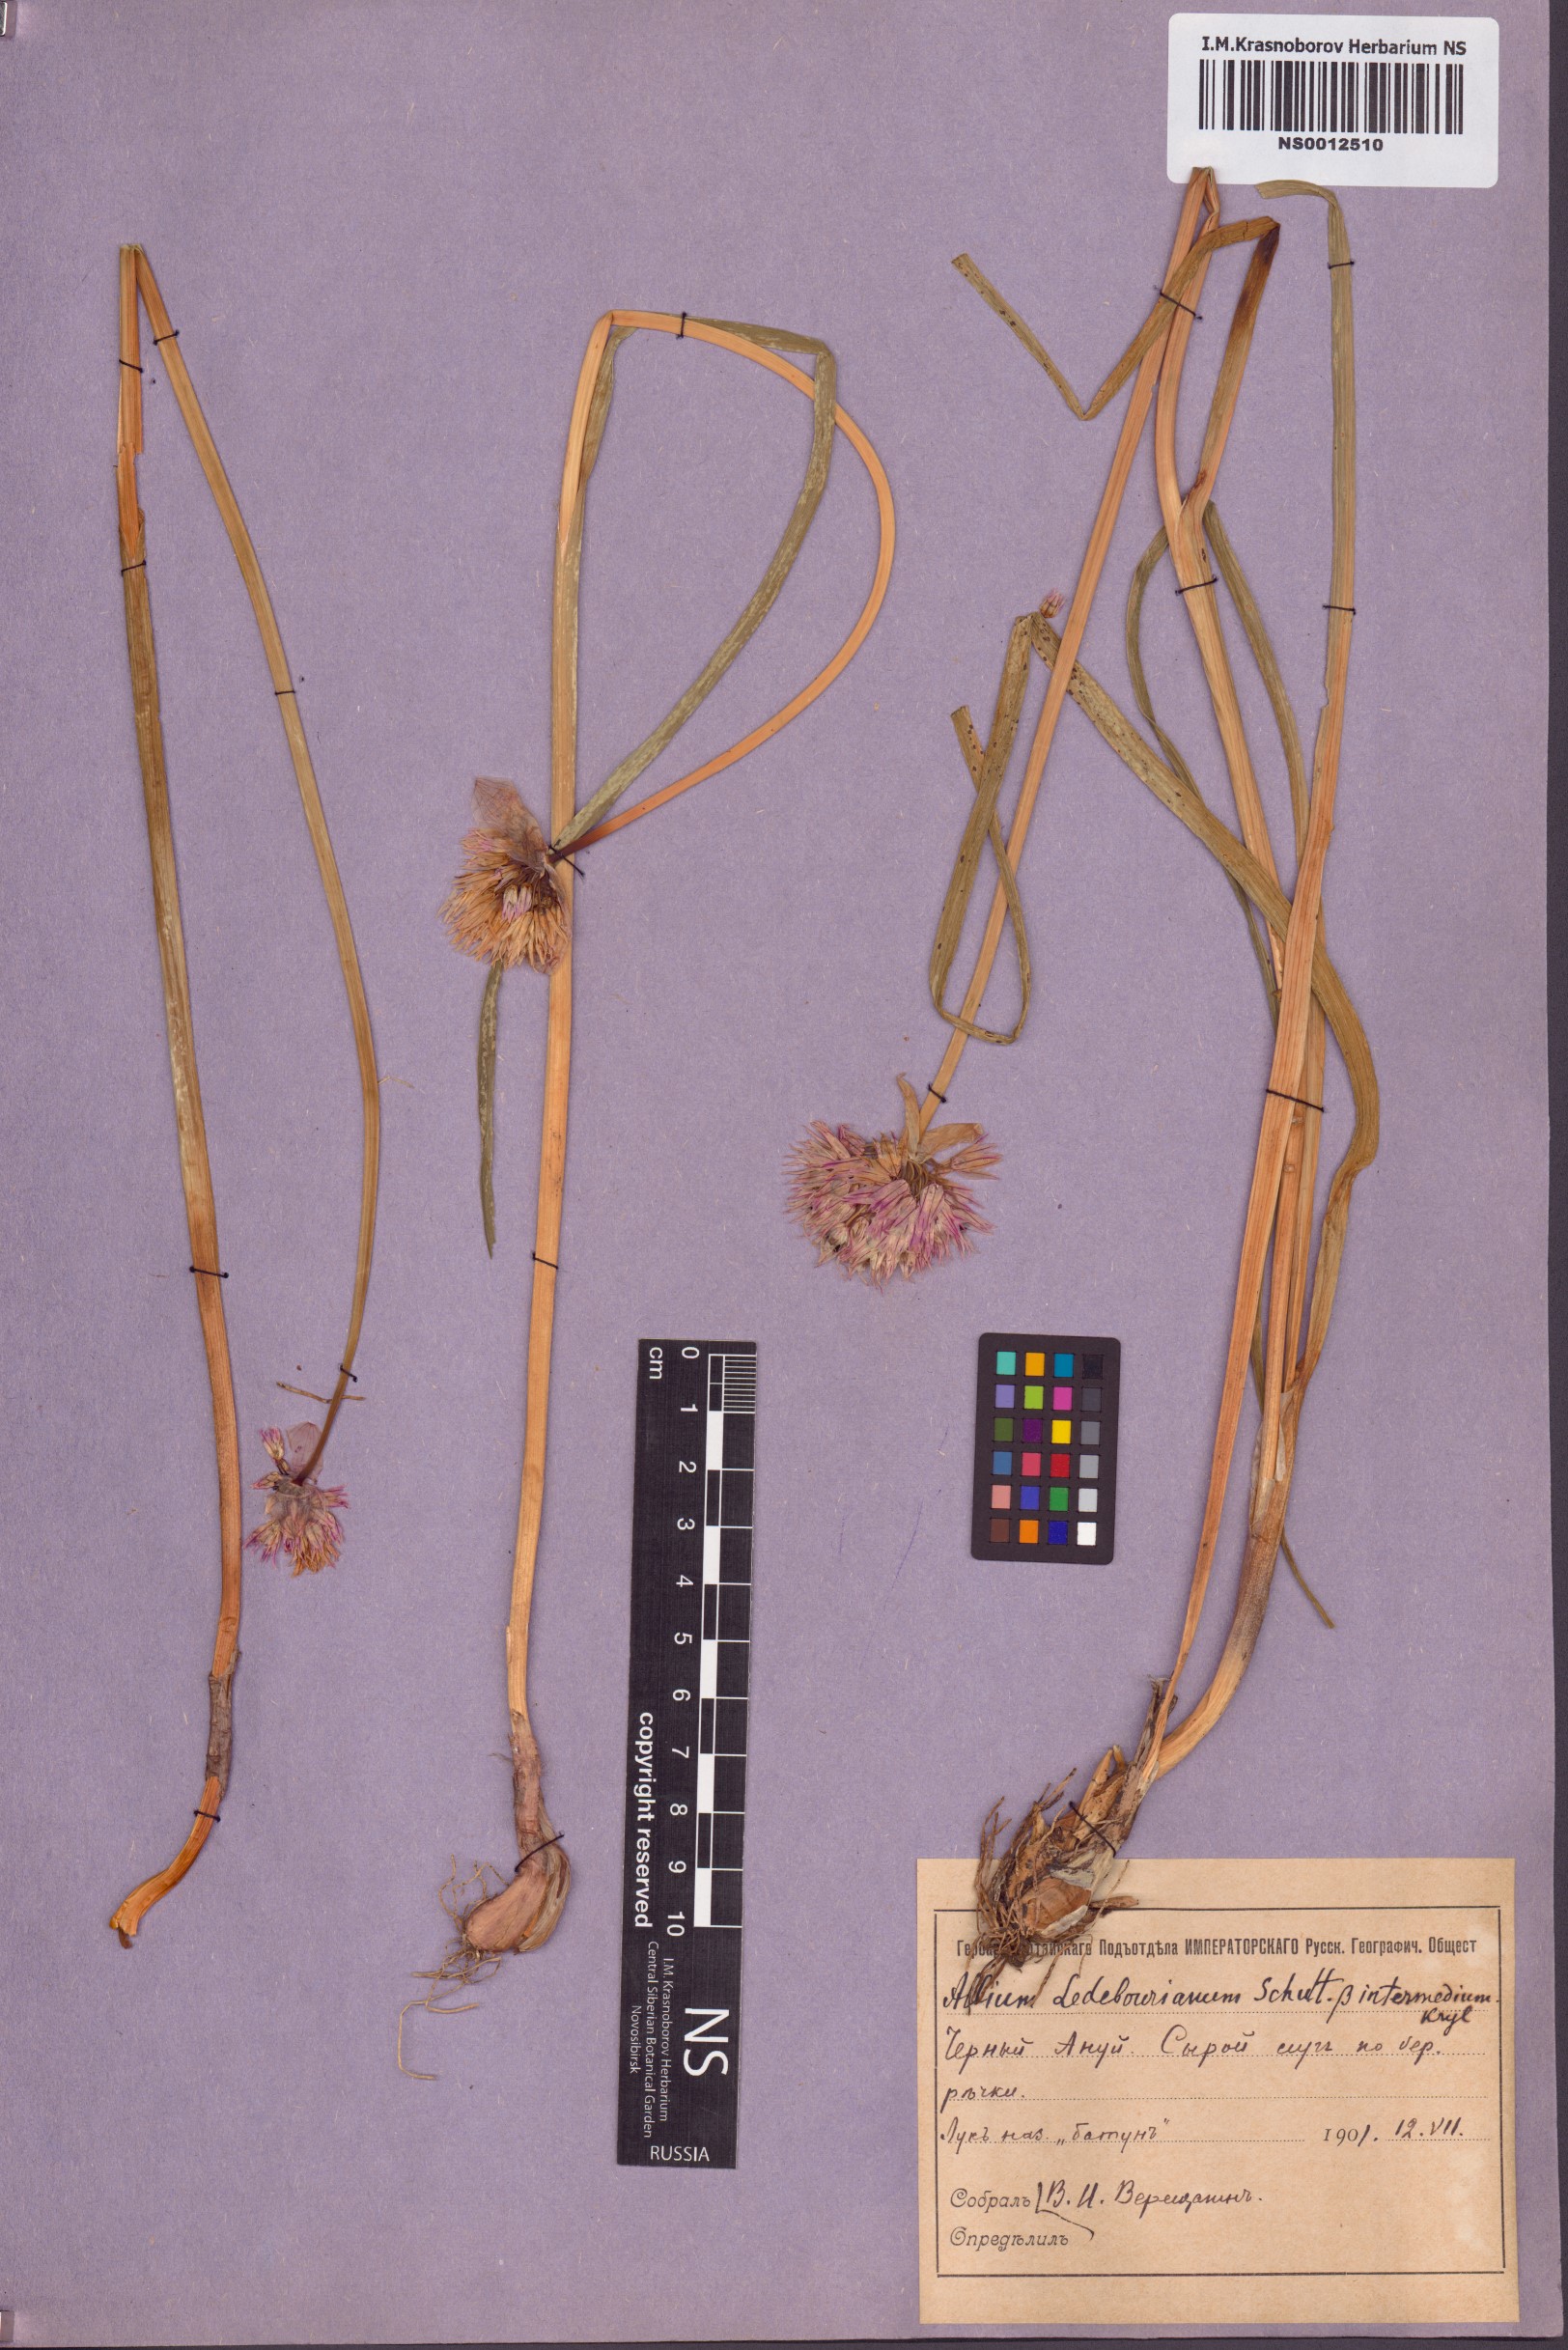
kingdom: Plantae
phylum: Tracheophyta
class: Liliopsida
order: Asparagales
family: Amaryllidaceae
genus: Allium
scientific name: Allium ledebourianum
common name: Ledebour chive
